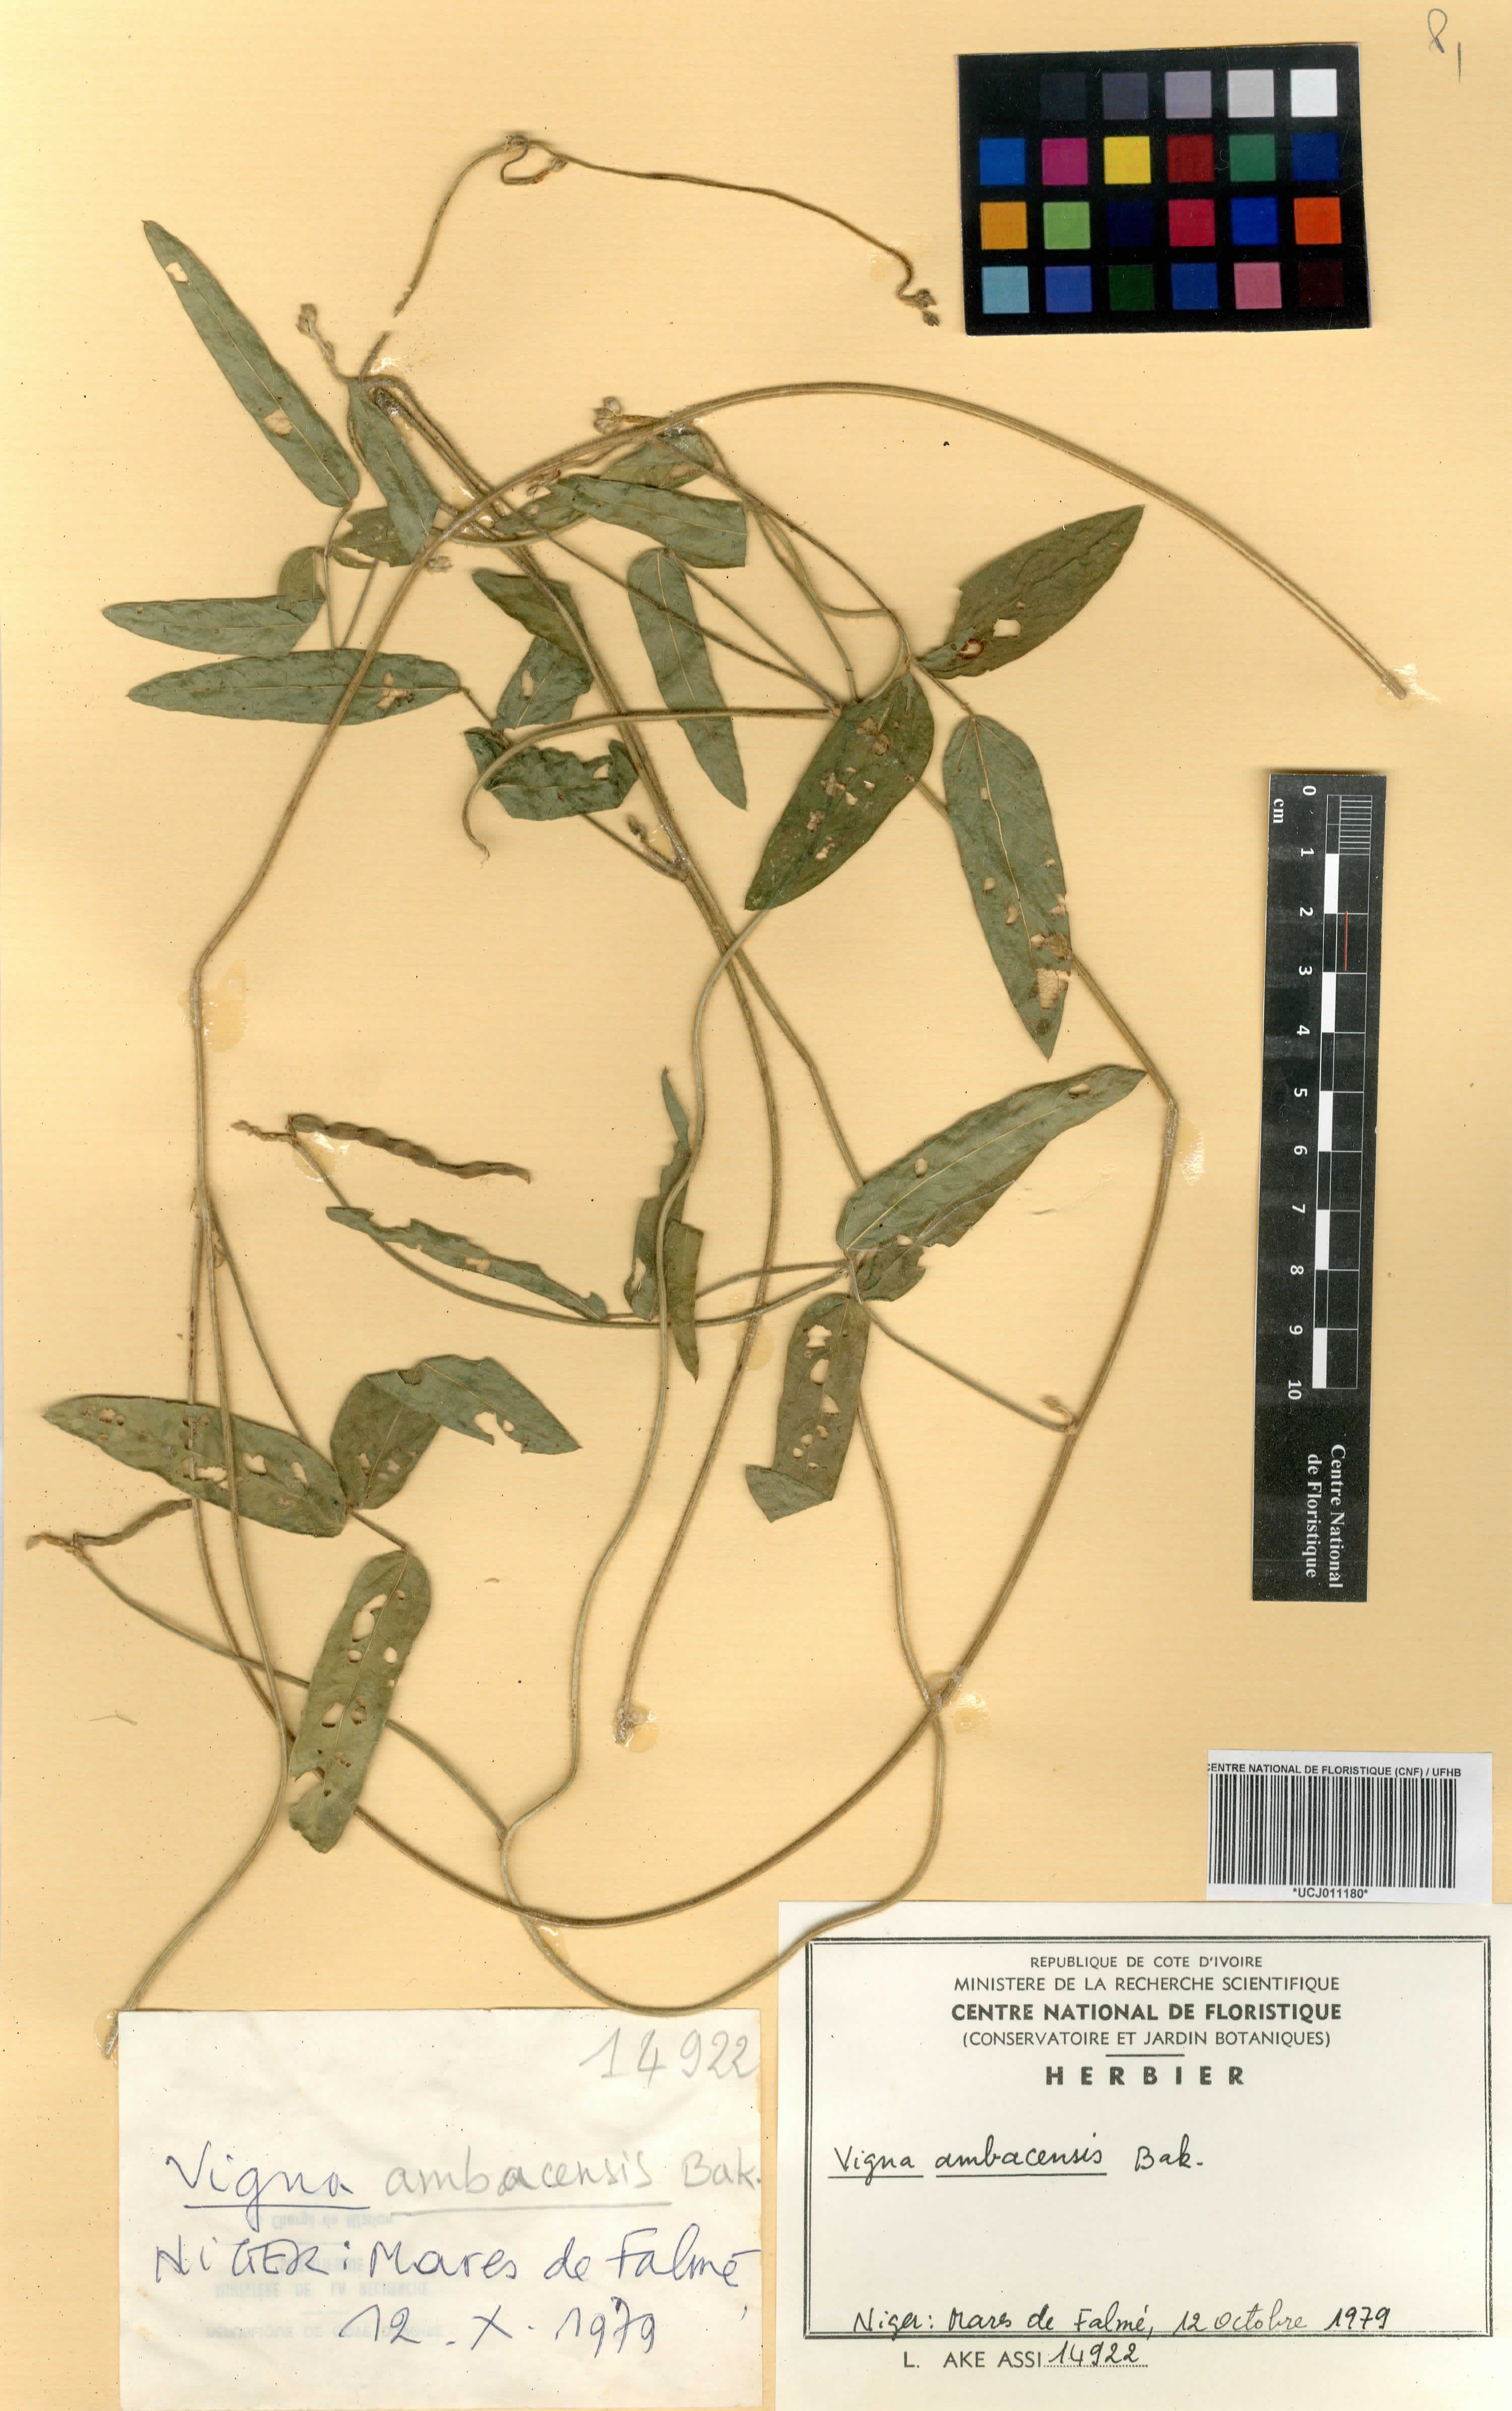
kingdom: Plantae
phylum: Tracheophyta
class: Magnoliopsida
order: Fabales
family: Fabaceae
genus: Vigna
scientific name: Vigna ambacensis
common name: Tsarkiyan zomo
